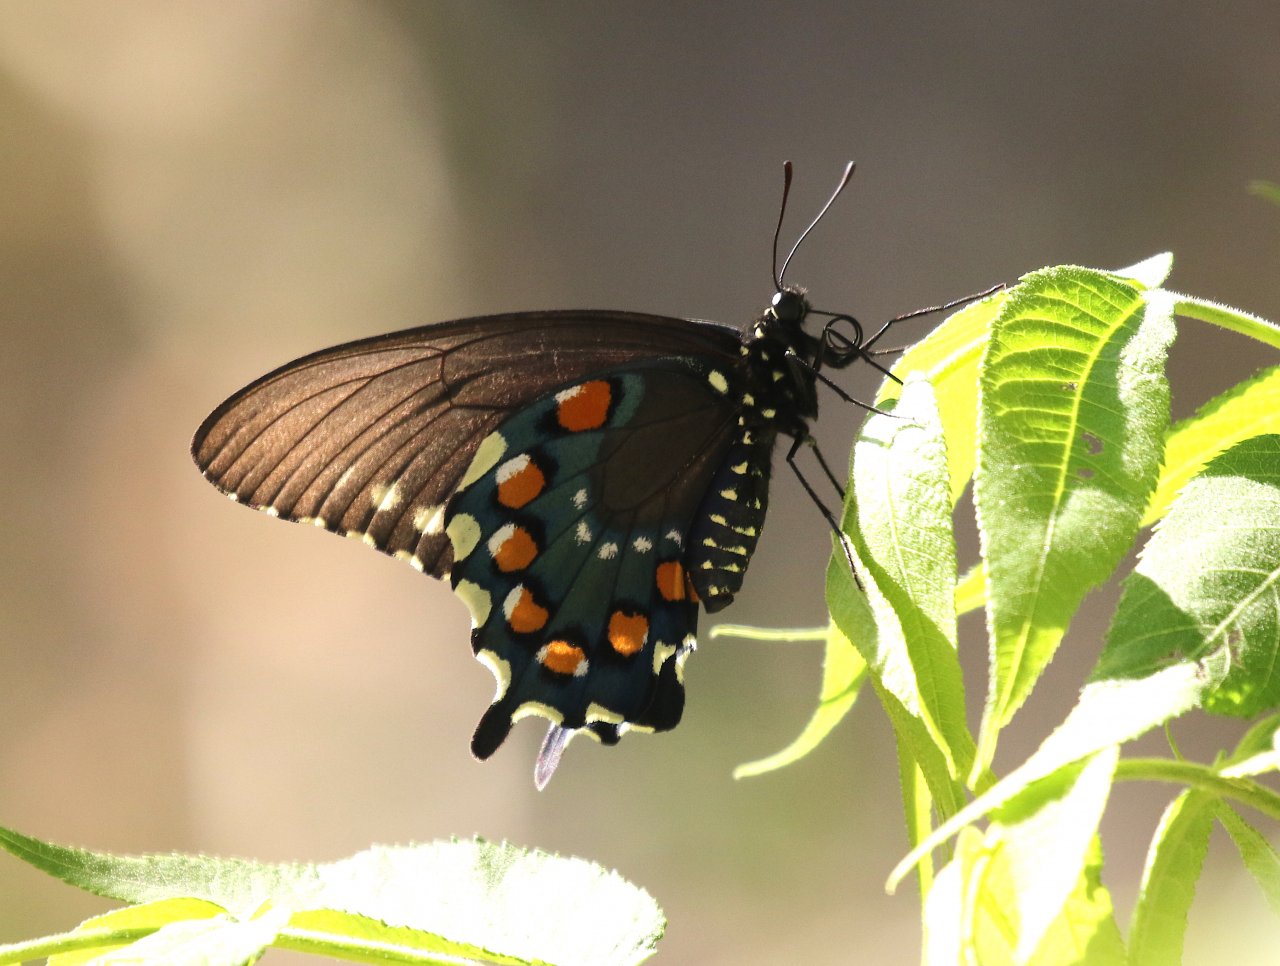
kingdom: Animalia
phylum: Arthropoda
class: Insecta
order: Lepidoptera
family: Papilionidae
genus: Battus
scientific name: Battus philenor
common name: Pipevine Swallowtail
